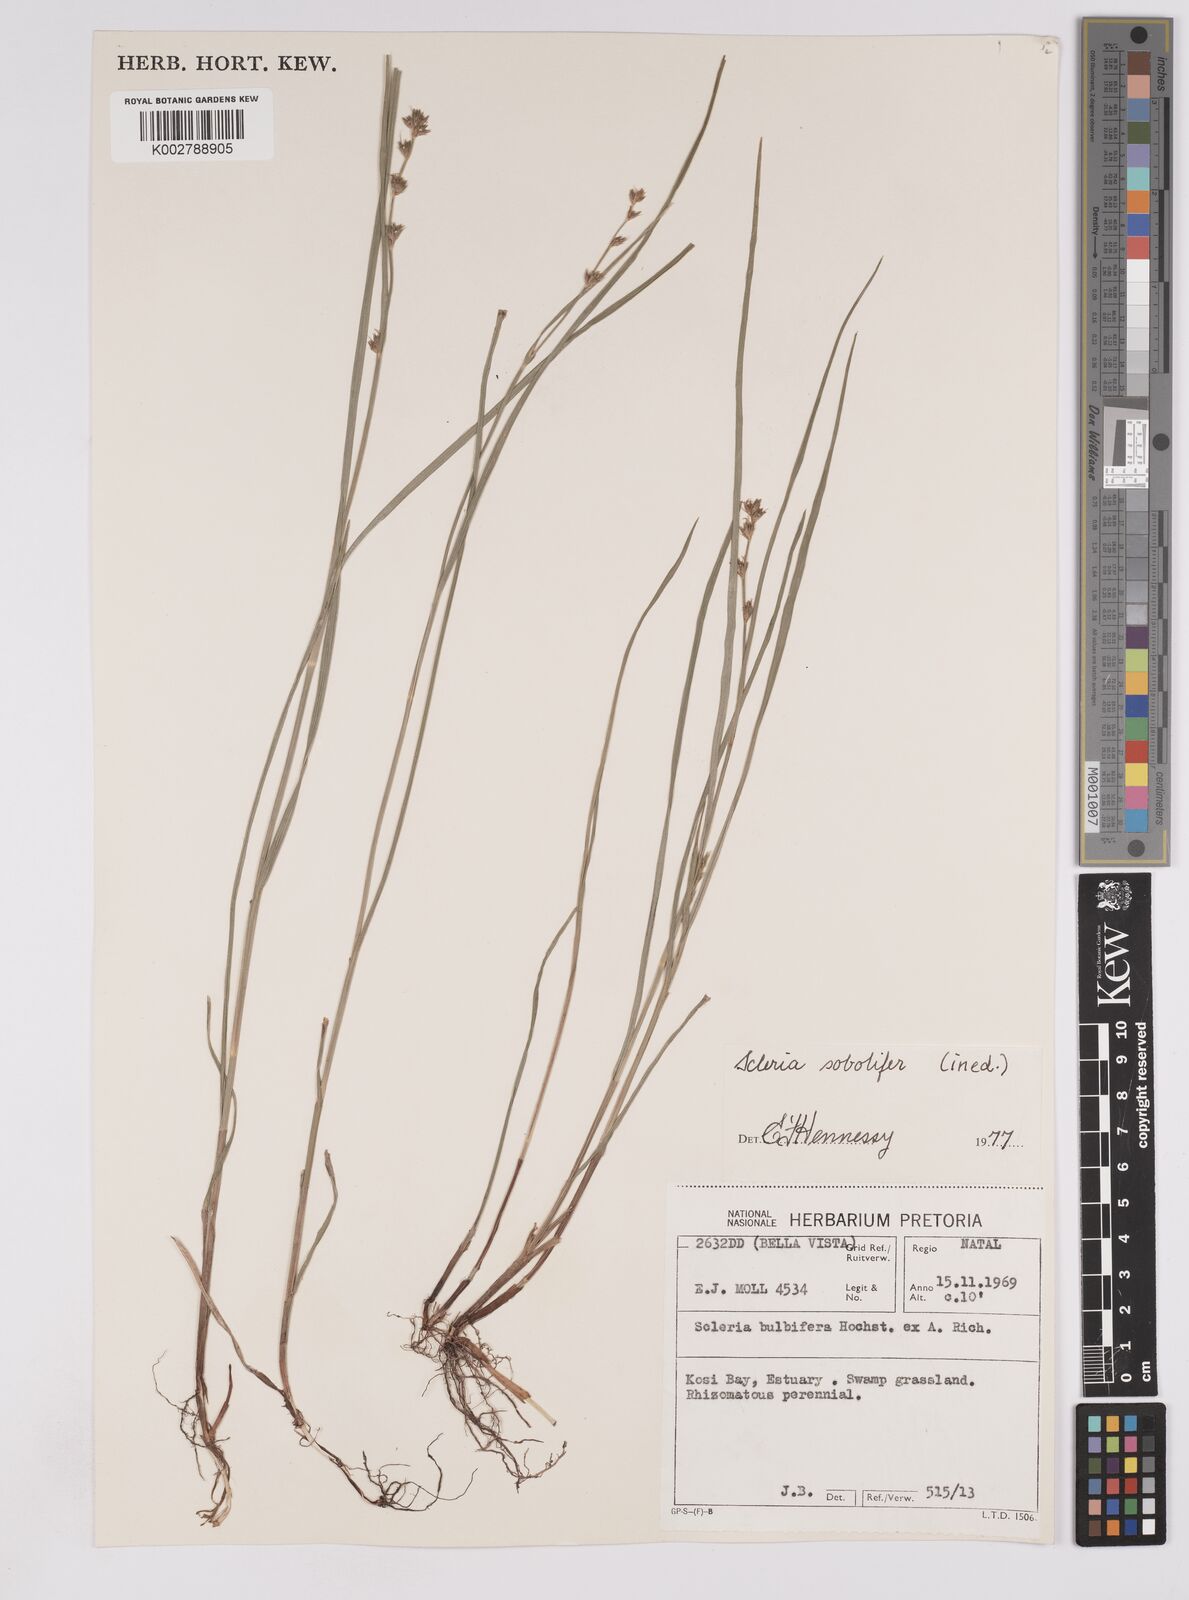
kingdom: Plantae
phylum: Tracheophyta
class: Liliopsida
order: Poales
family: Cyperaceae
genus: Scleria
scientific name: Scleria sobolifera
